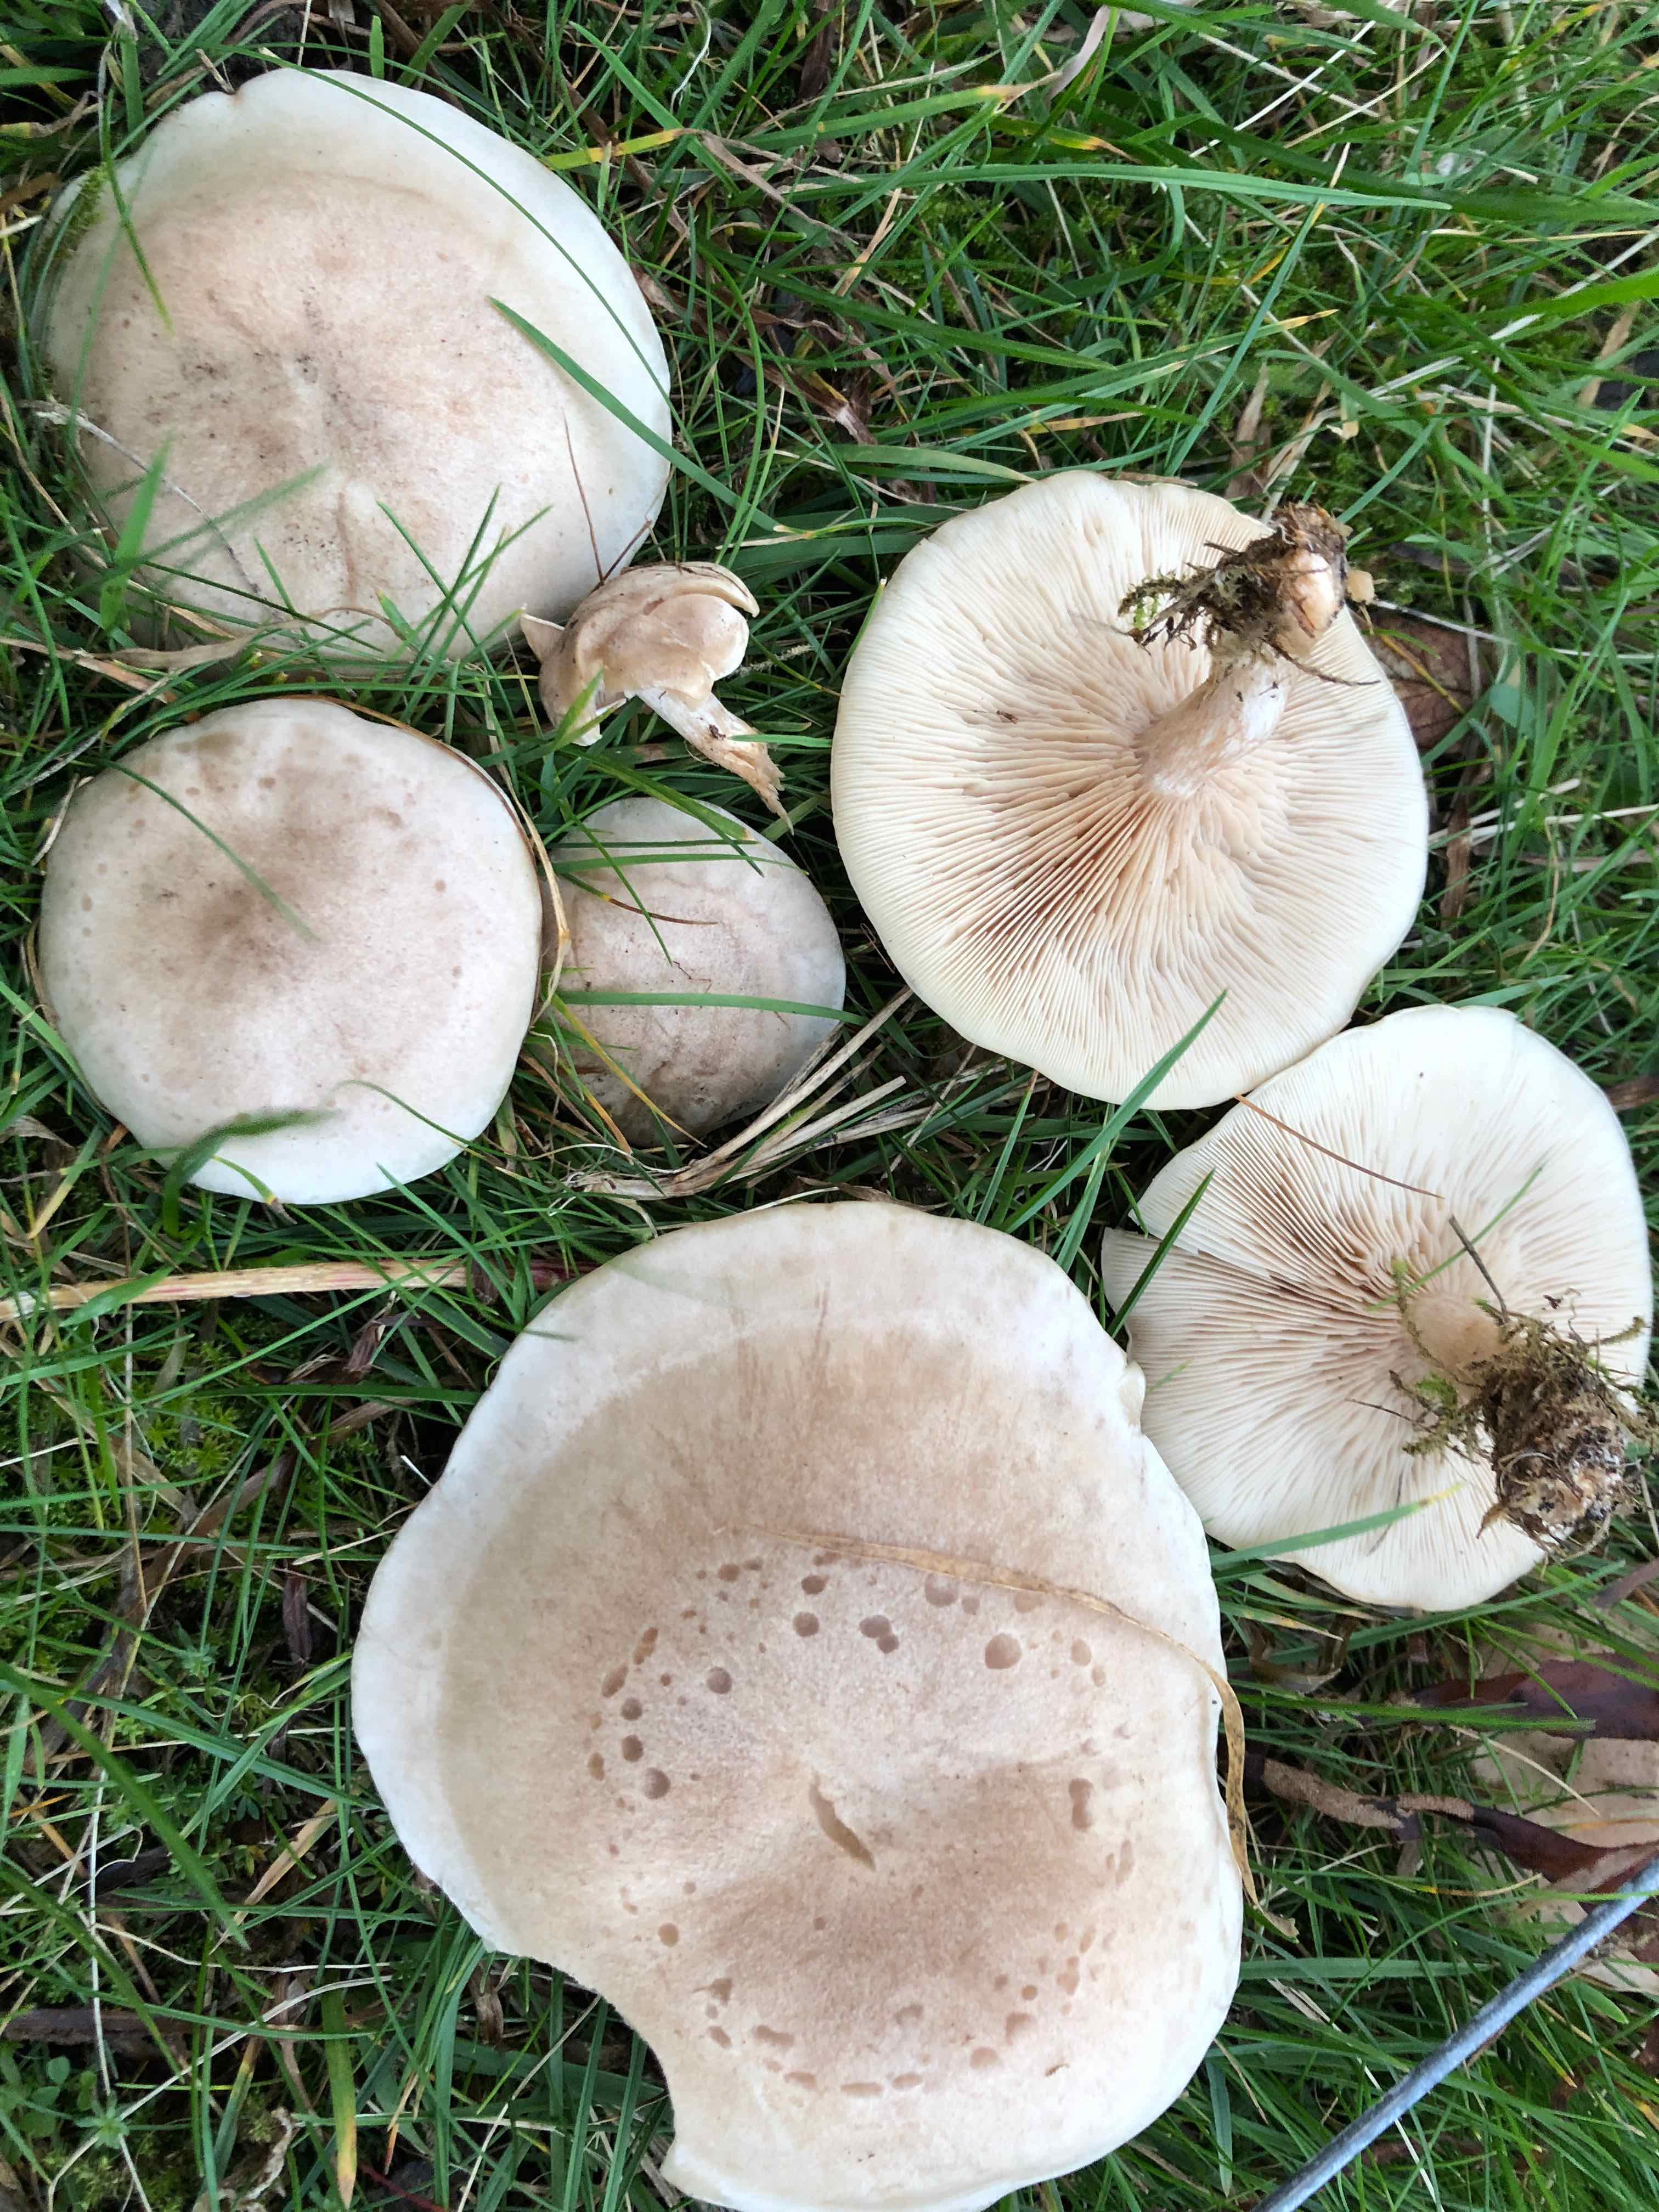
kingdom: Fungi
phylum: Basidiomycota
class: Agaricomycetes
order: Agaricales
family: Tricholomataceae
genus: Lepista
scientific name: Lepista panaeolus
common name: marmoreret hekseringshat
